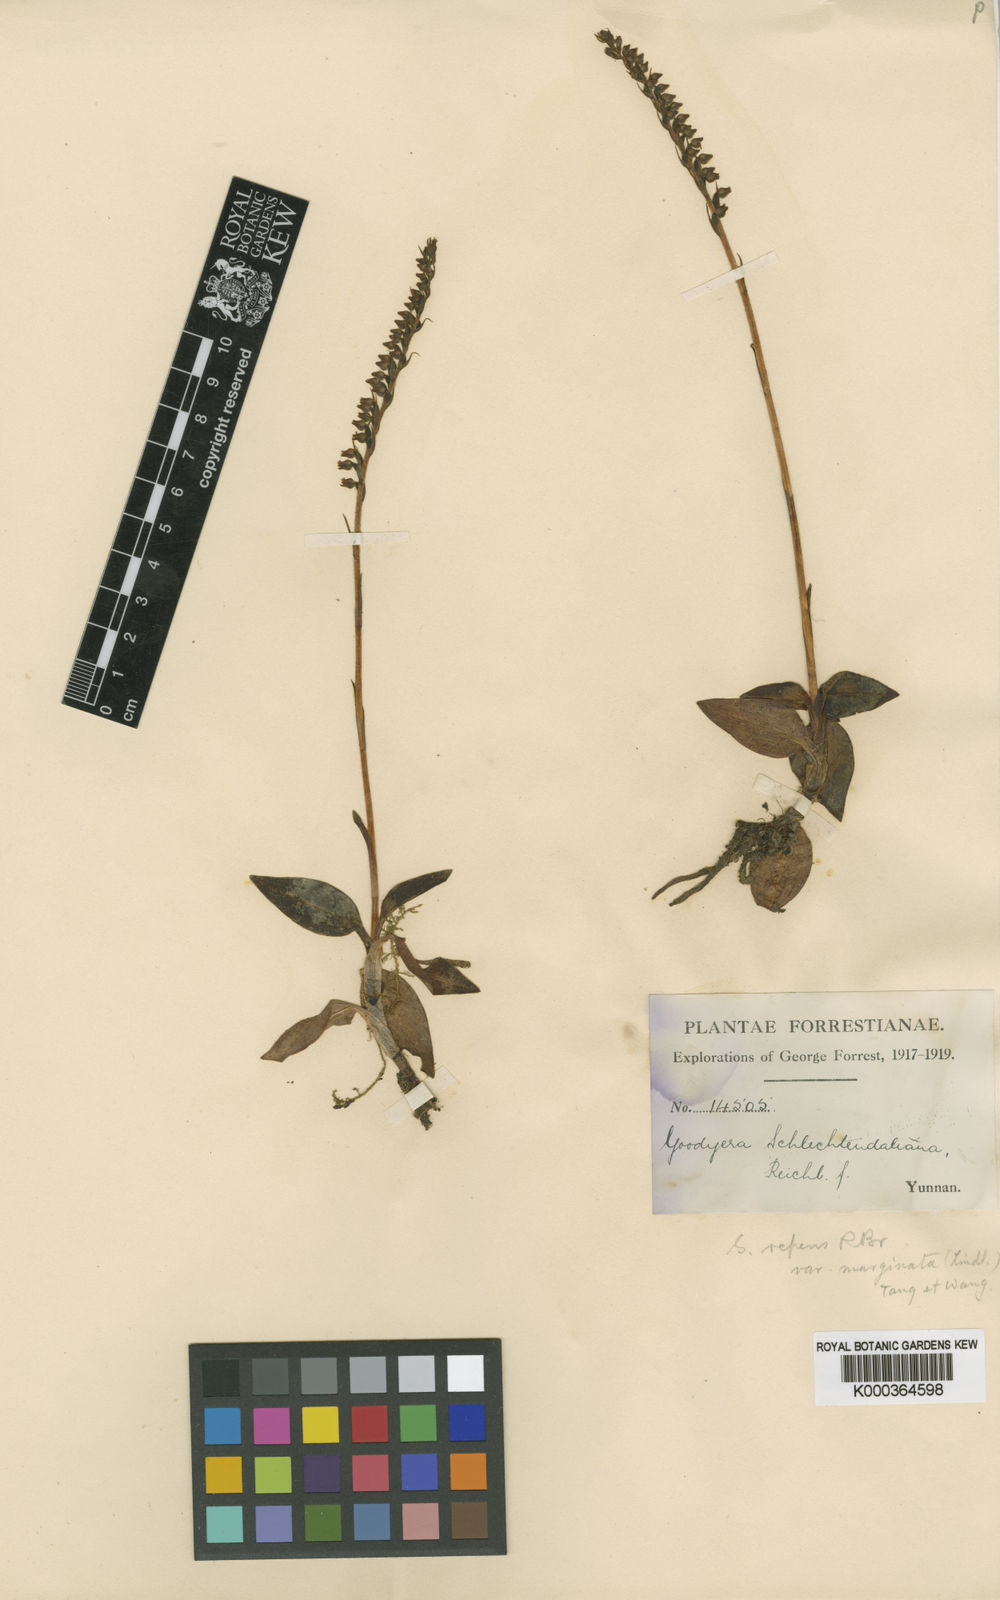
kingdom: Plantae
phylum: Tracheophyta
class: Liliopsida
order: Asparagales
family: Orchidaceae
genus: Goodyera
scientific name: Goodyera schlechtendaliana
